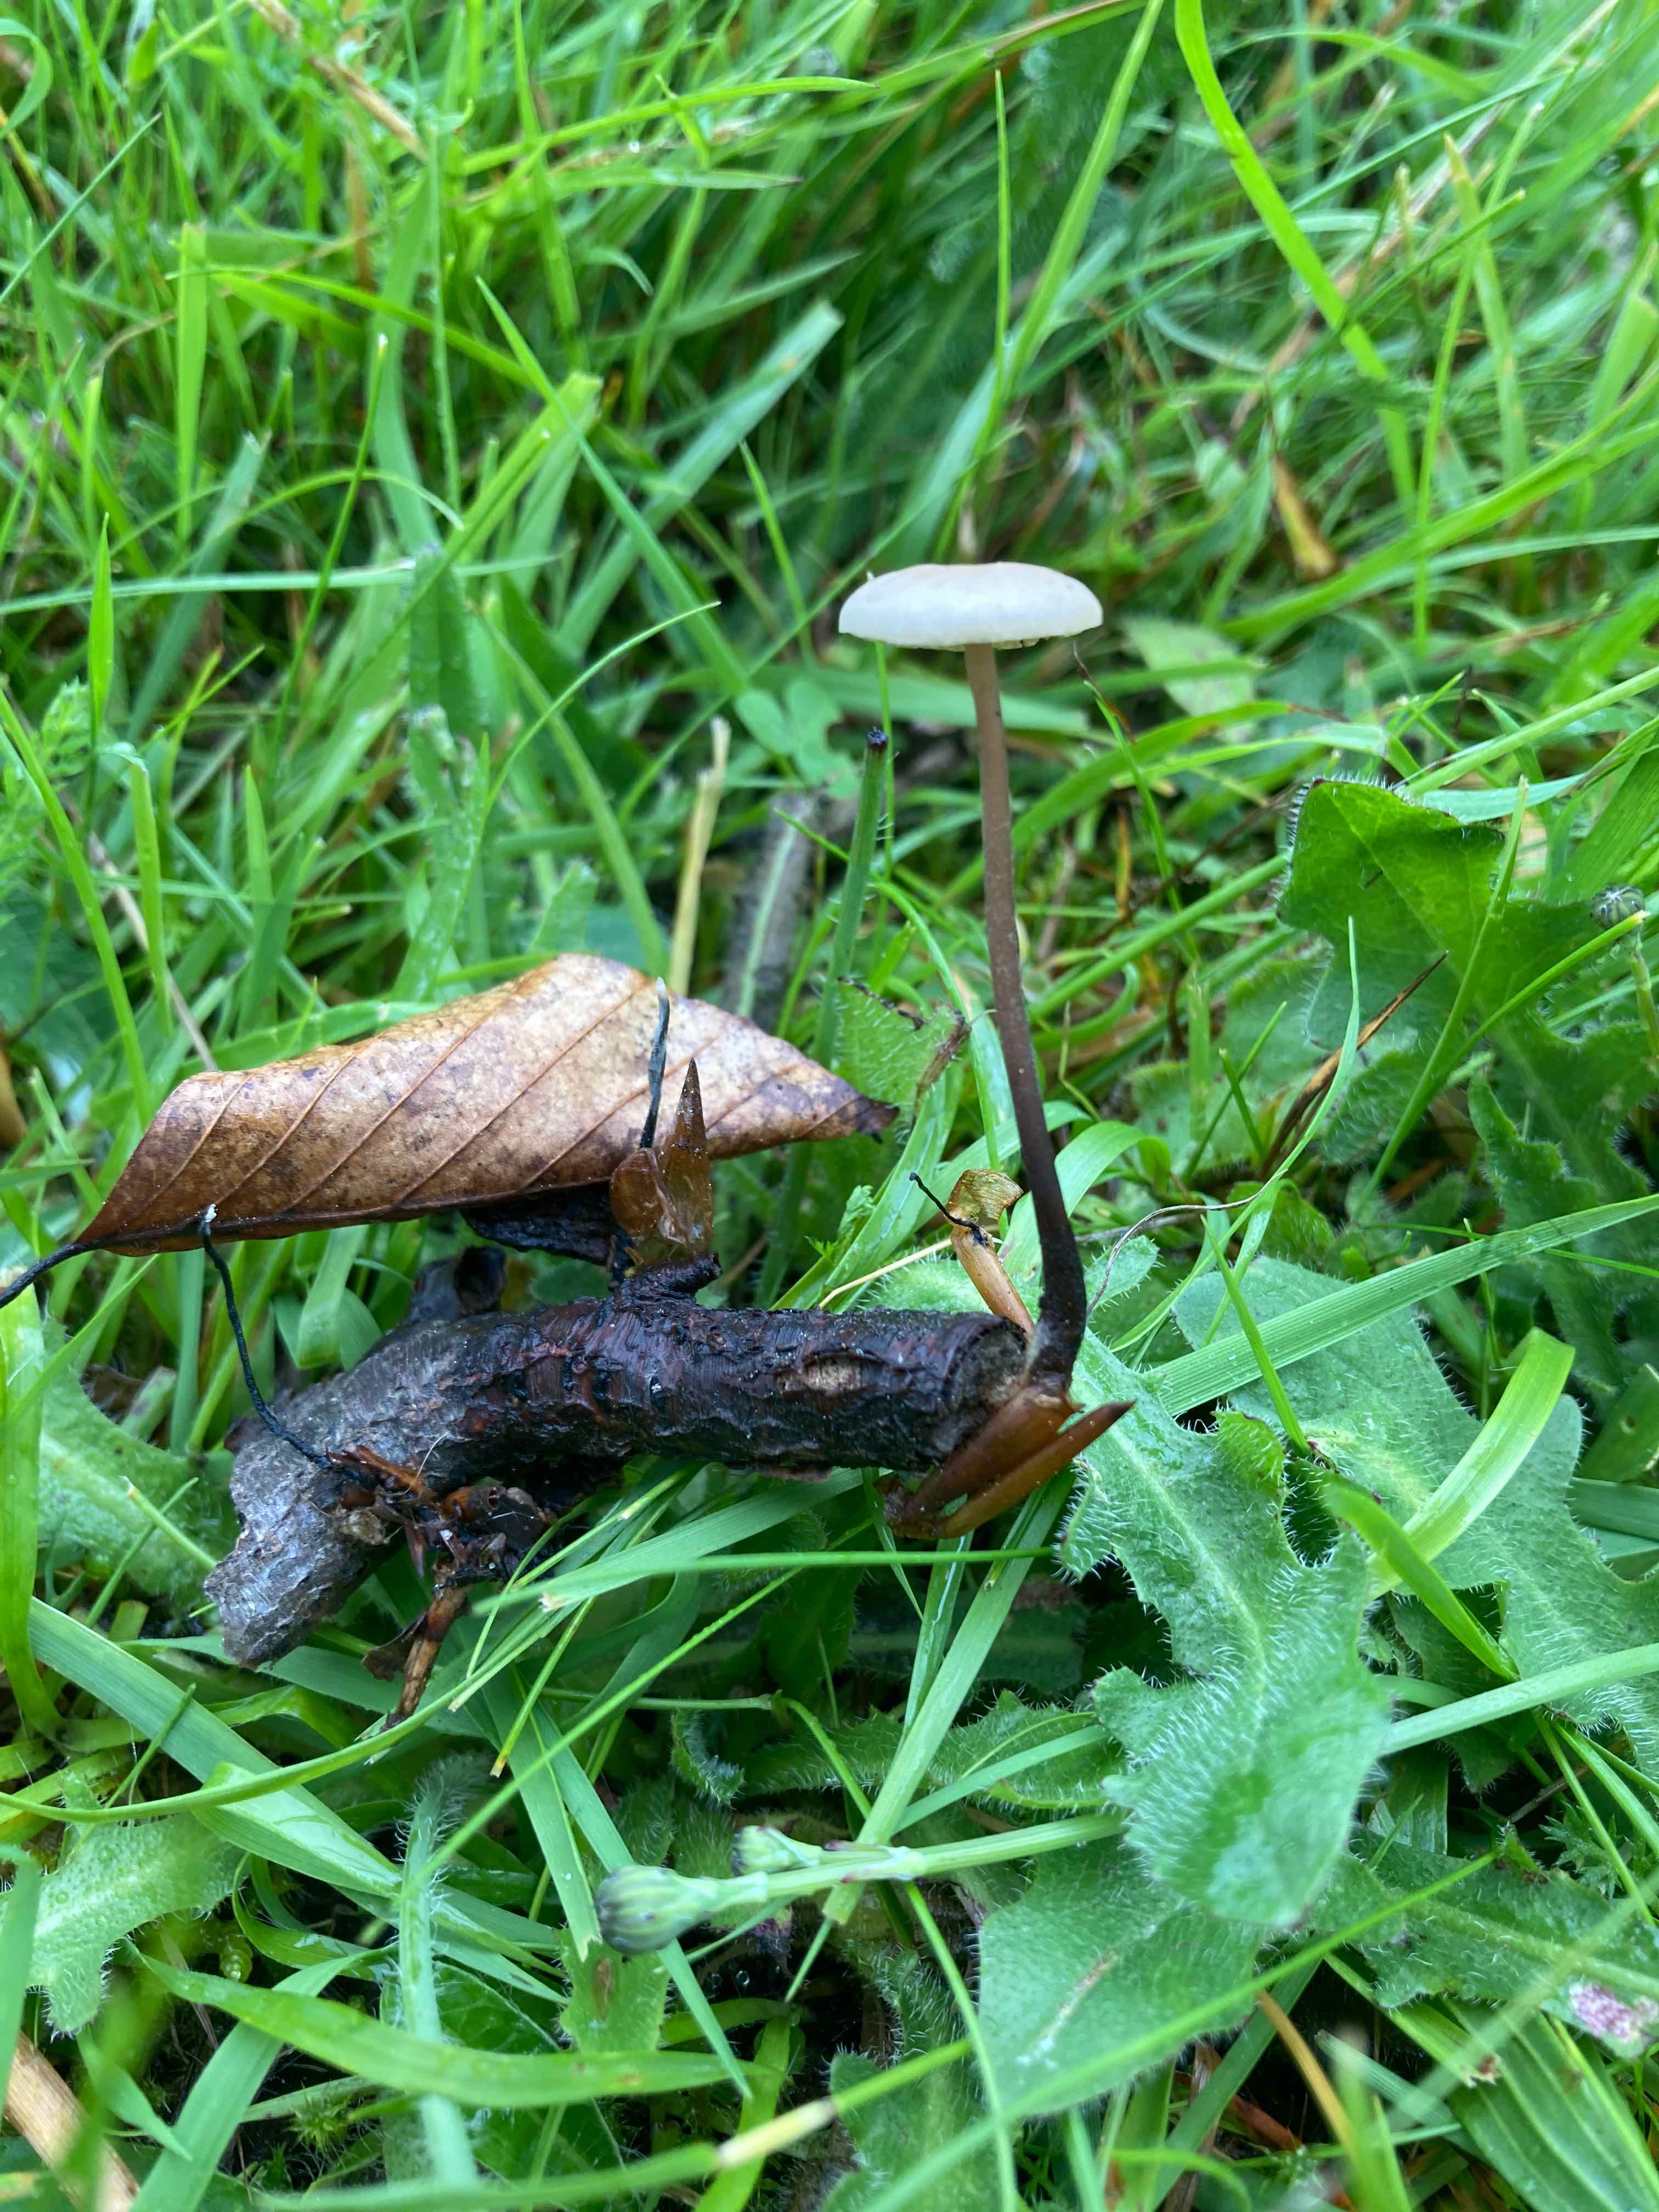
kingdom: Fungi
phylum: Basidiomycota
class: Agaricomycetes
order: Agaricales
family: Omphalotaceae
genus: Mycetinis
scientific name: Mycetinis alliaceus
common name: stor løghat
